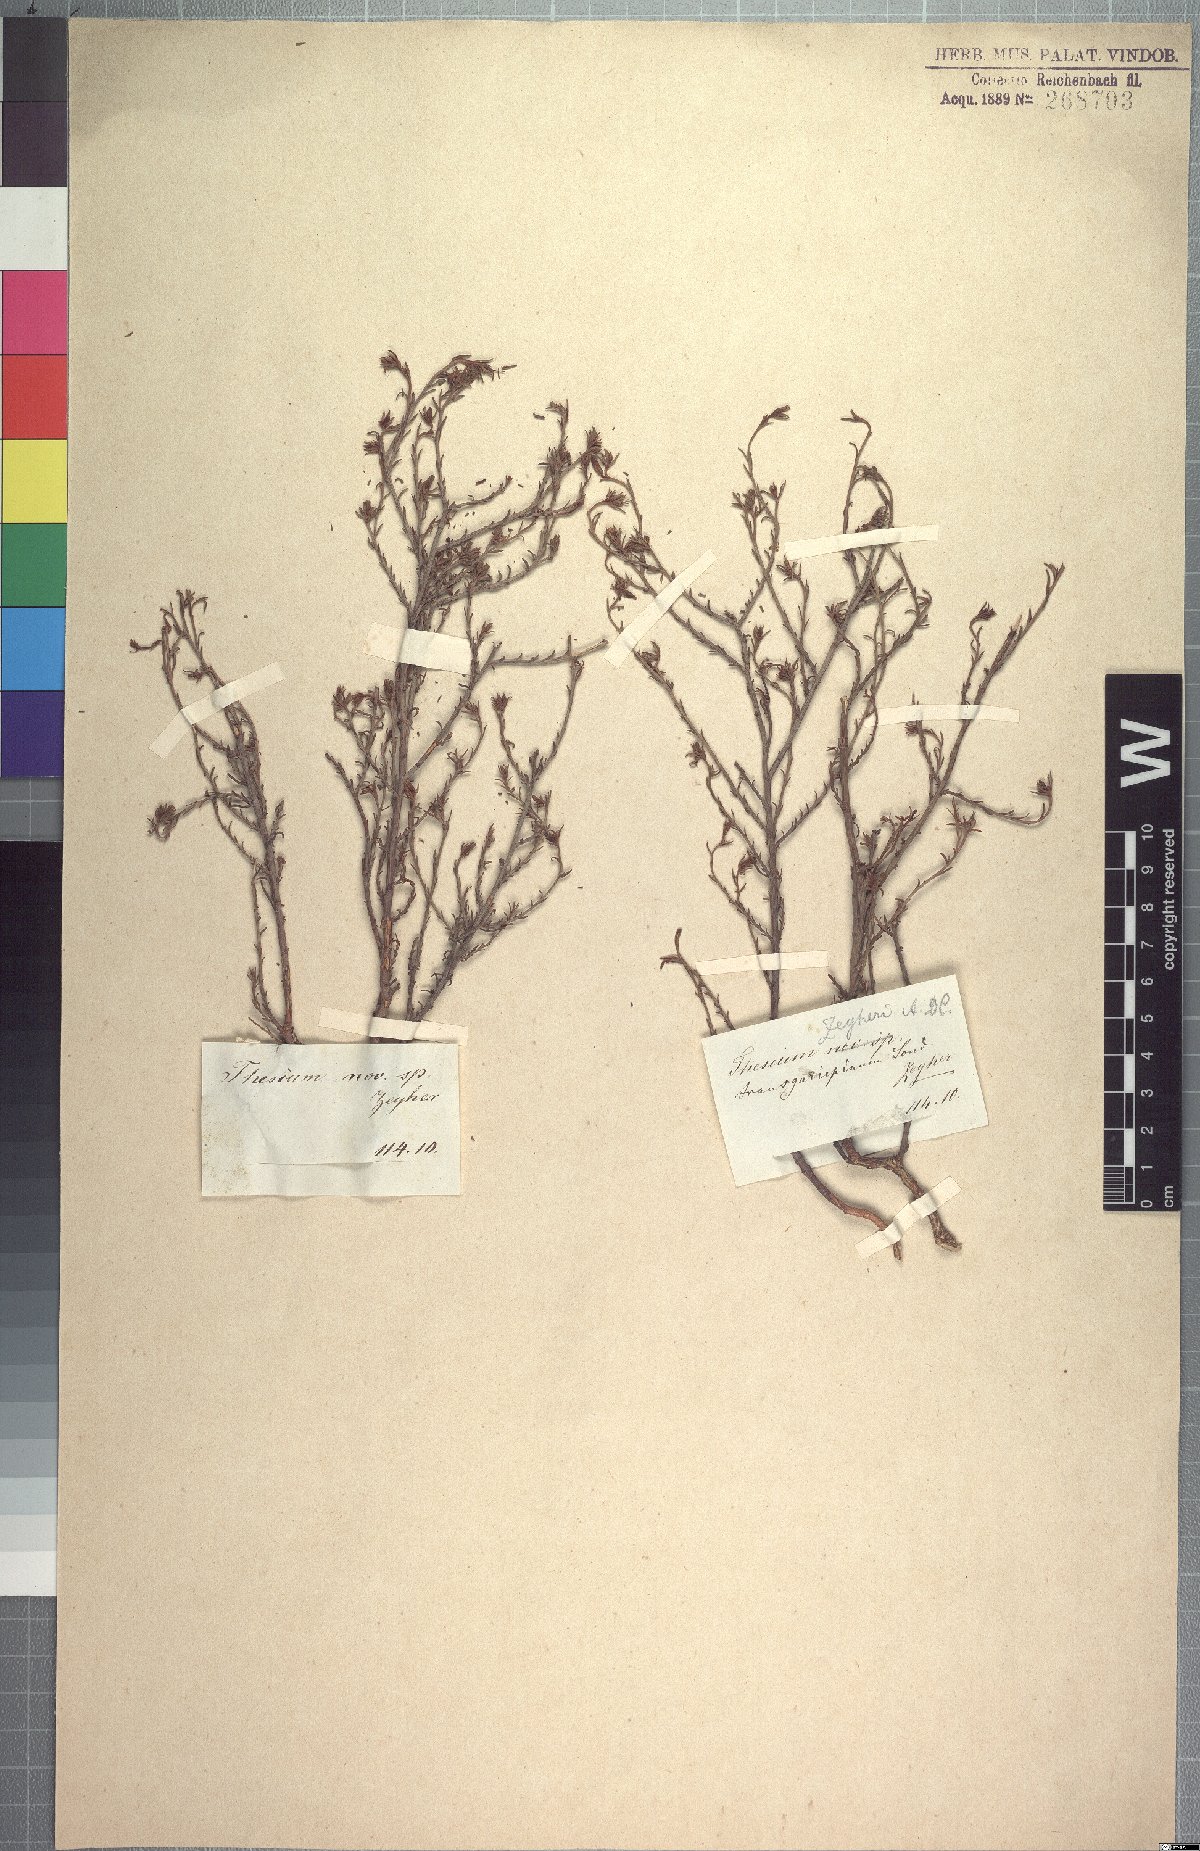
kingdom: Plantae
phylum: Tracheophyta
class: Magnoliopsida
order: Santalales
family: Thesiaceae
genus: Thesium
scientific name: Thesium zeyheri
